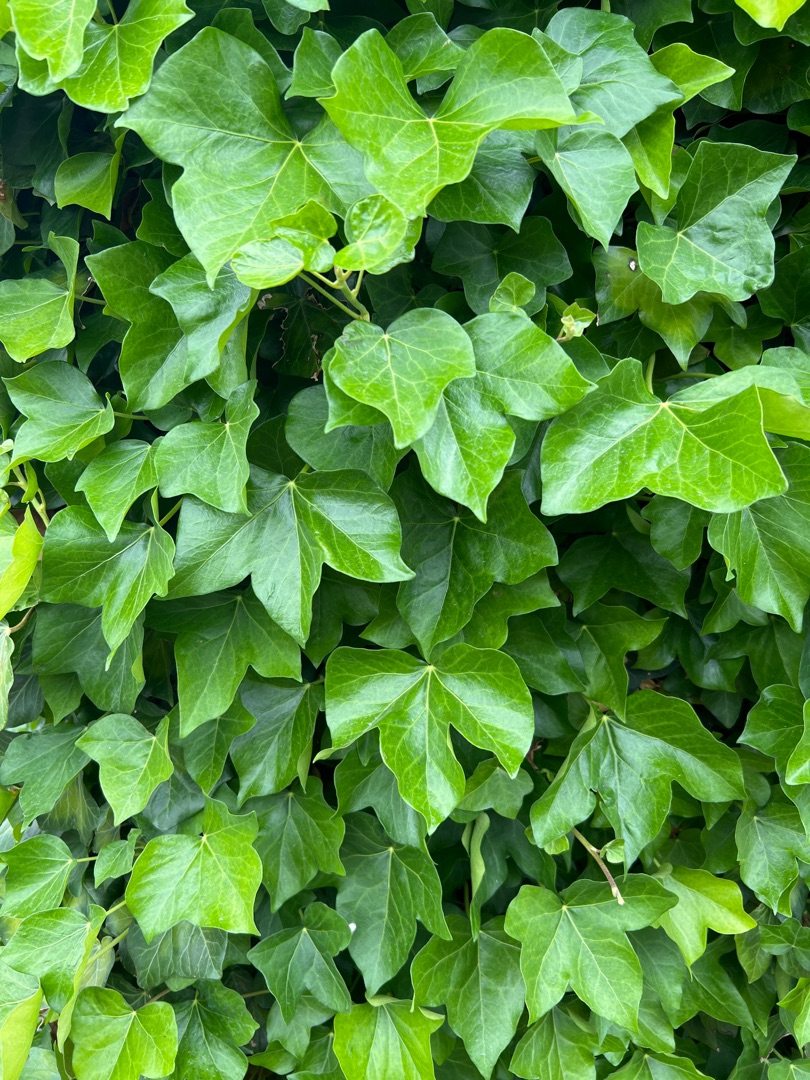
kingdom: Plantae
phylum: Tracheophyta
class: Magnoliopsida
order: Apiales
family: Araliaceae
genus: Hedera
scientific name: Hedera helix
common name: Vedbend
